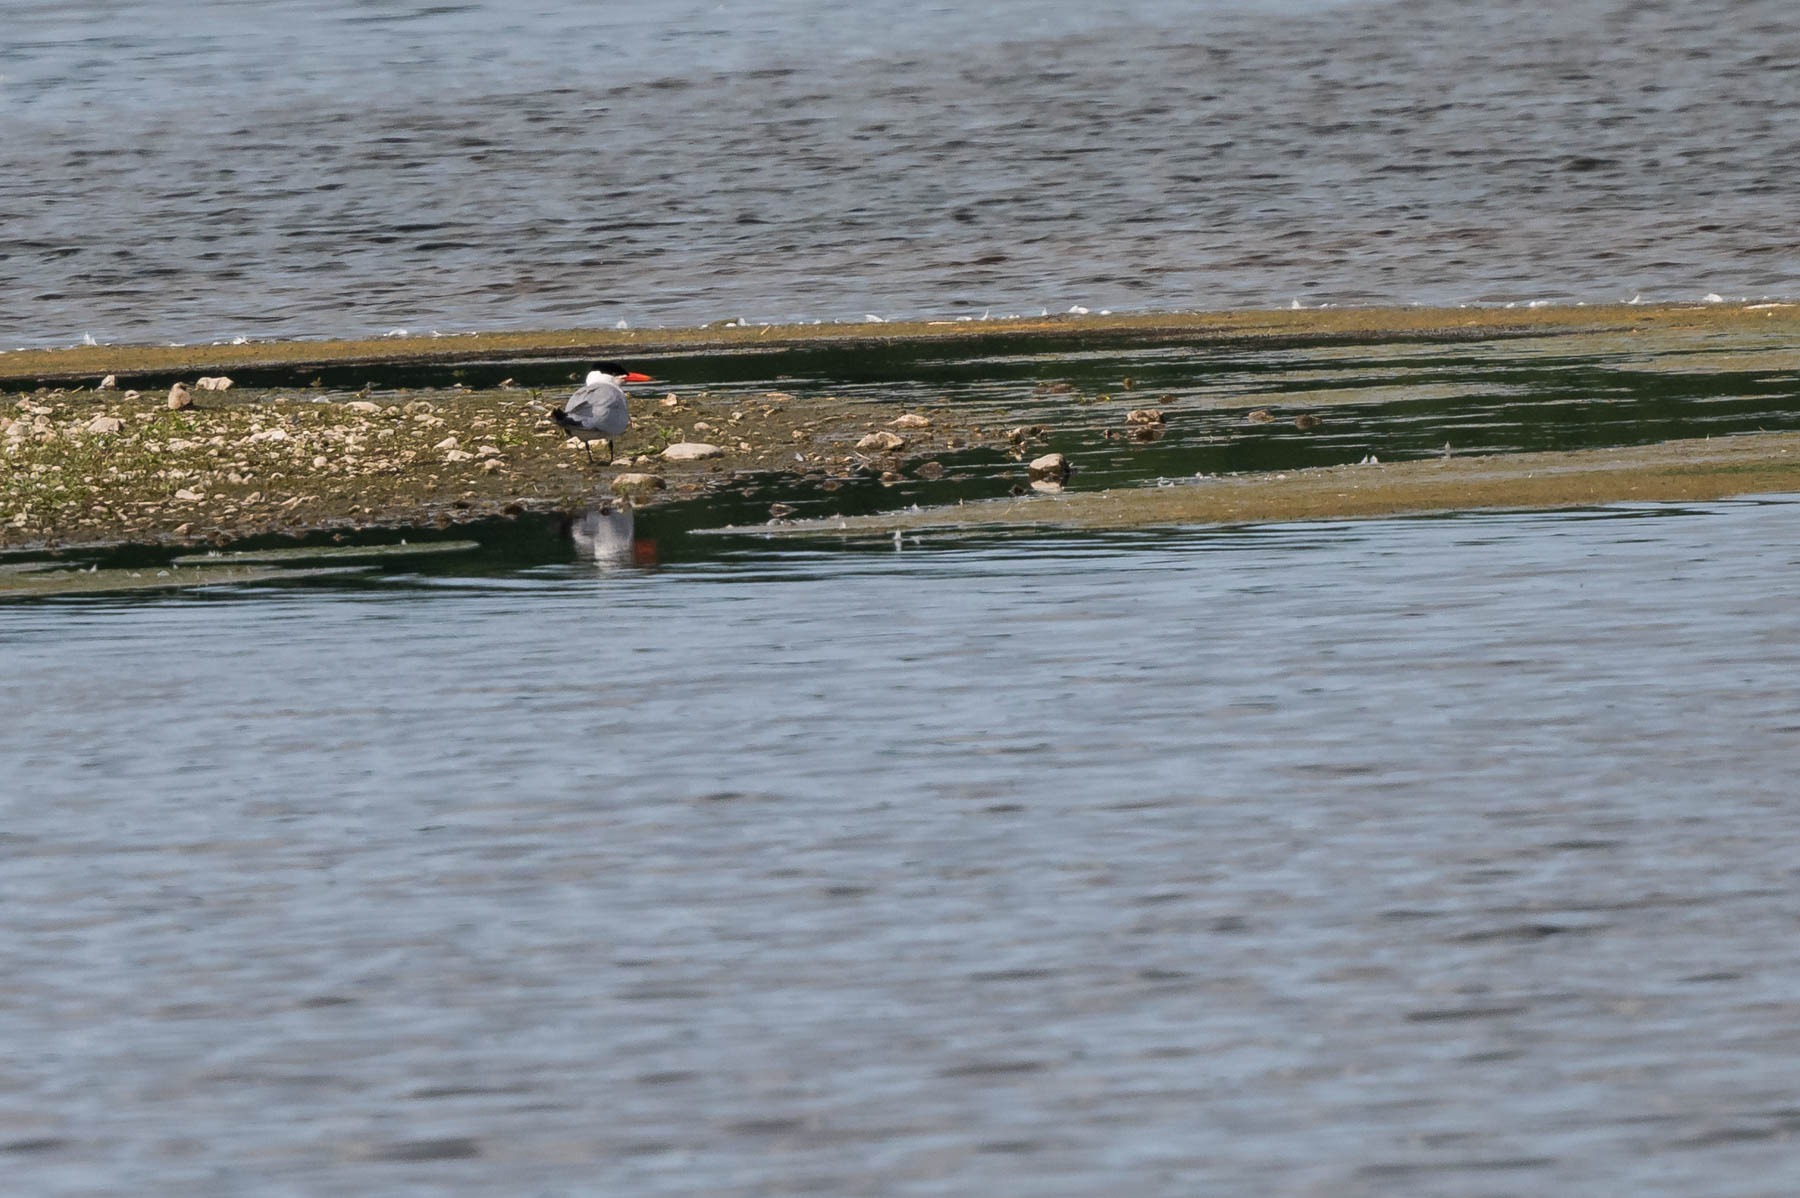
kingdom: Animalia
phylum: Chordata
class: Aves
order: Charadriiformes
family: Laridae
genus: Hydroprogne
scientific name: Hydroprogne caspia
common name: Rovterne
